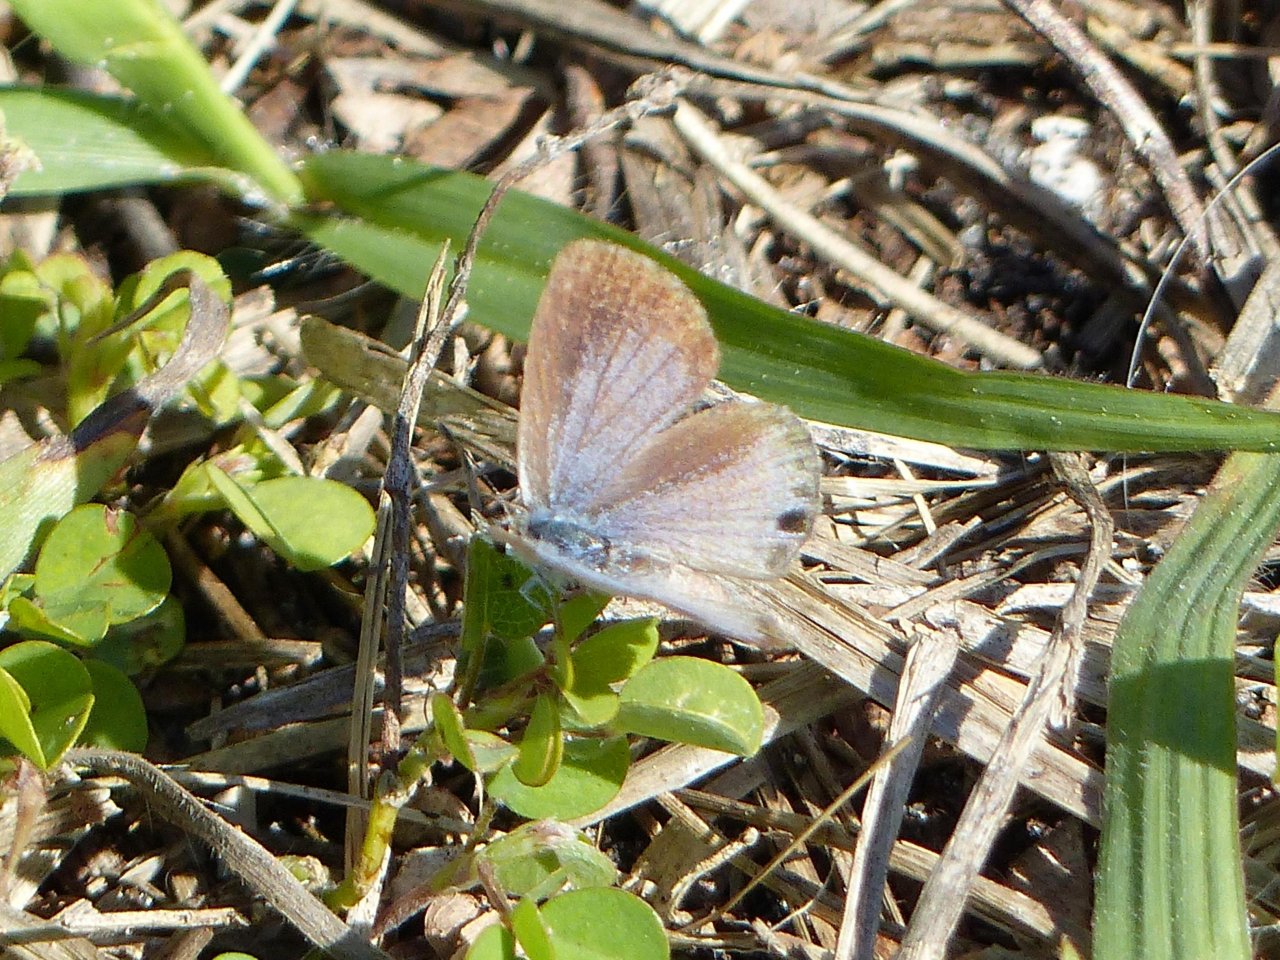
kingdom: Animalia
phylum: Arthropoda
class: Insecta
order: Lepidoptera
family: Lycaenidae
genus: Hemiargus
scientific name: Hemiargus ceraunus
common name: Ceraunus Blue
